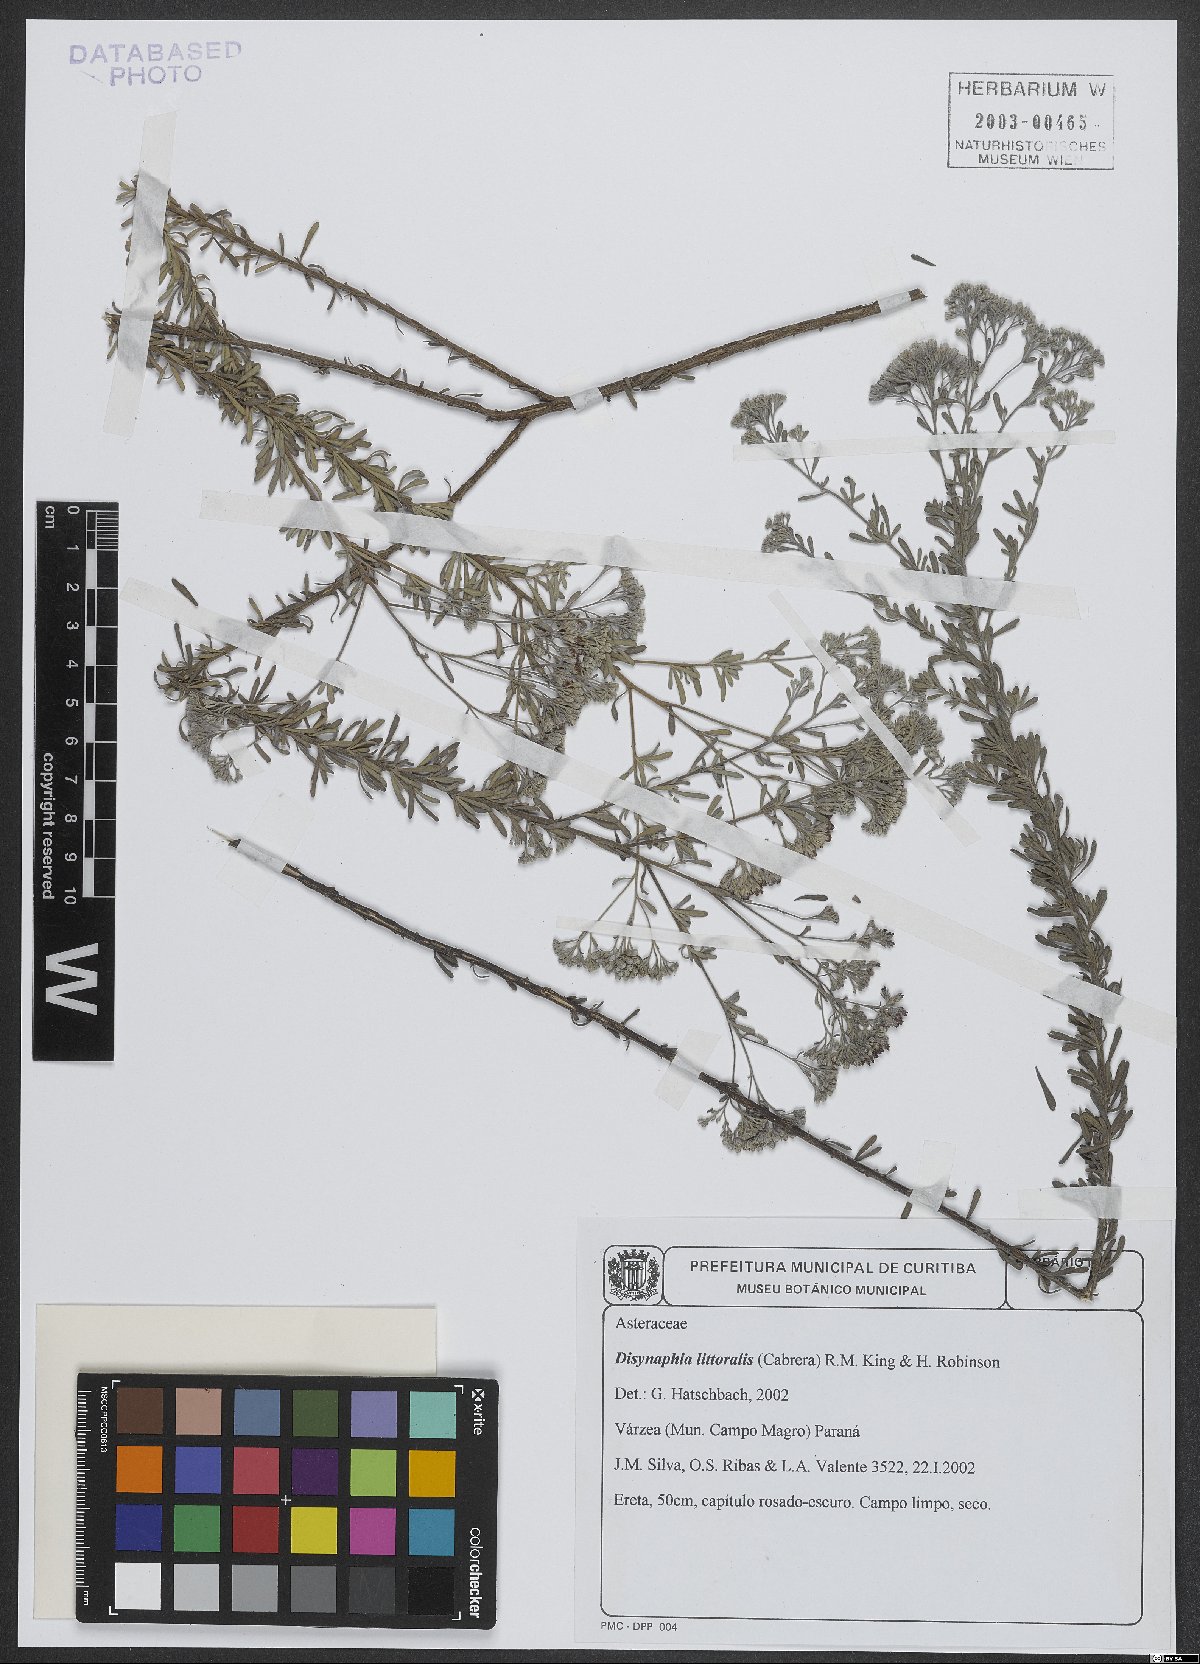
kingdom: Plantae
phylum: Tracheophyta
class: Magnoliopsida
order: Asterales
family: Asteraceae
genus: Disynaphia
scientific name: Disynaphia littoralis
